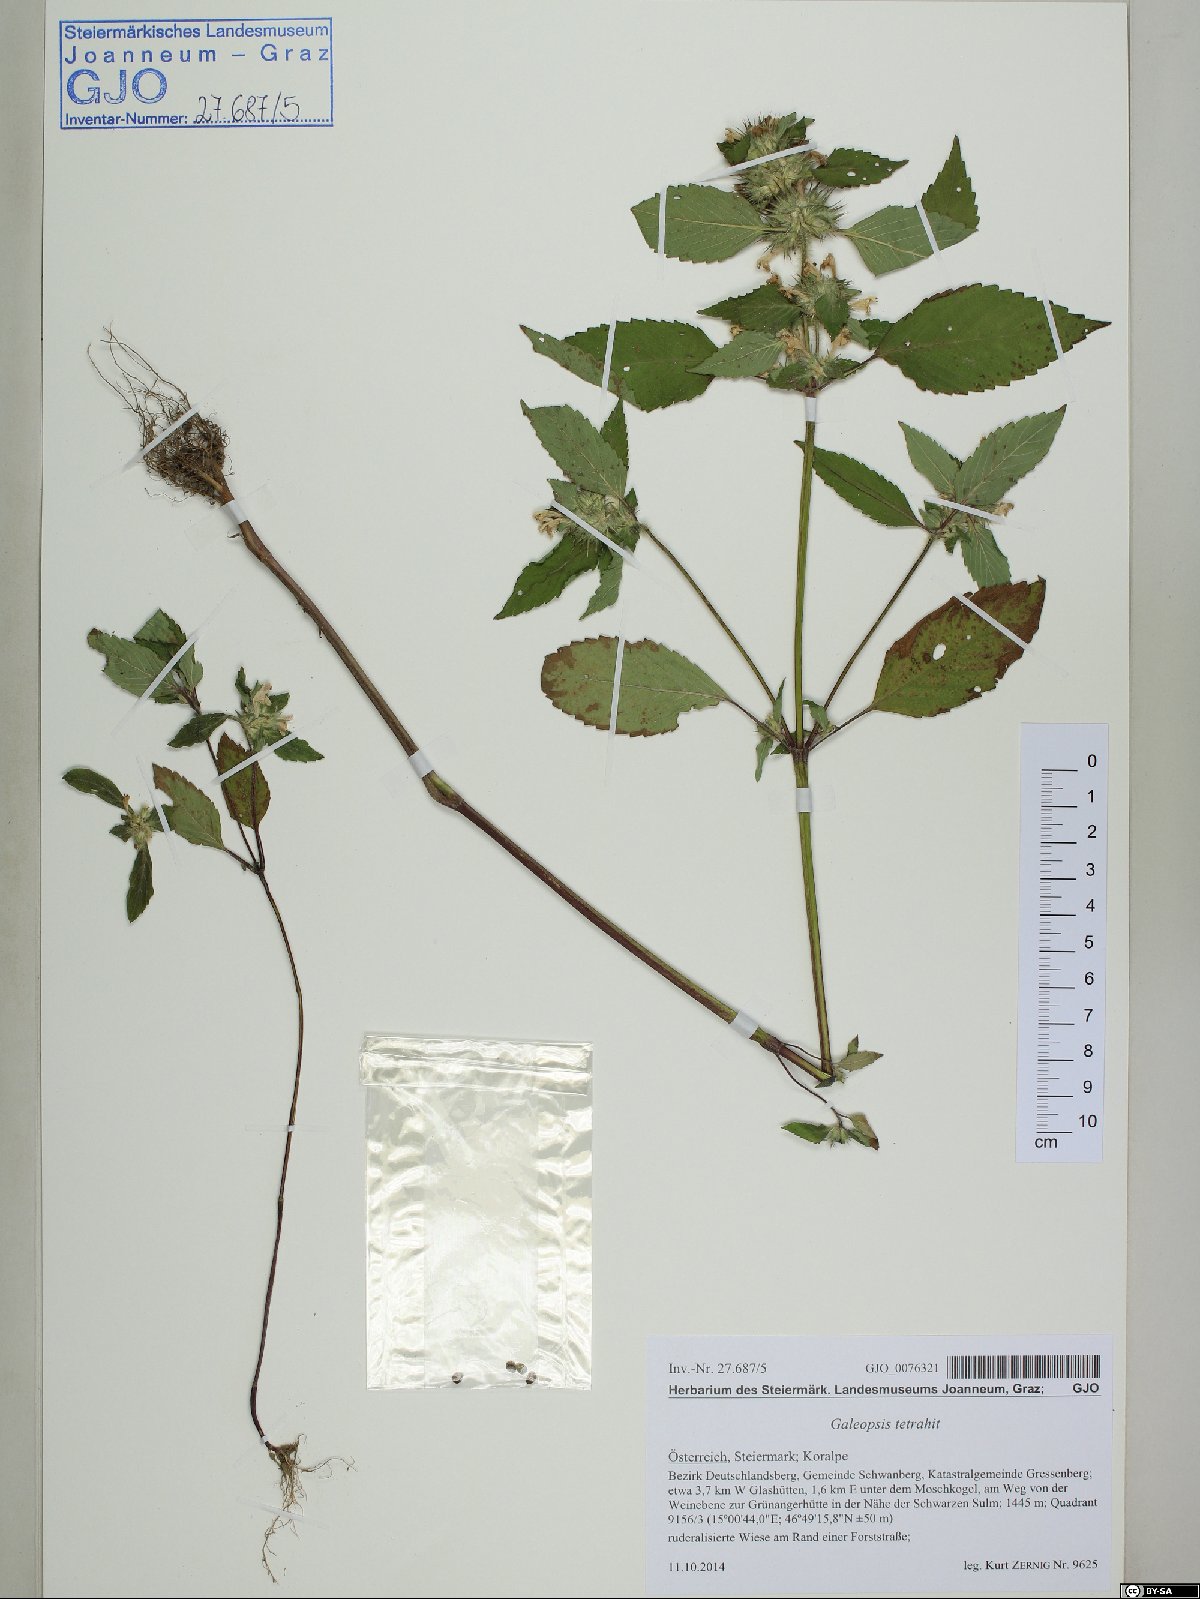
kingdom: Plantae
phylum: Tracheophyta
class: Magnoliopsida
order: Lamiales
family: Lamiaceae
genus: Galeopsis
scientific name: Galeopsis tetrahit
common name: Common hemp-nettle
